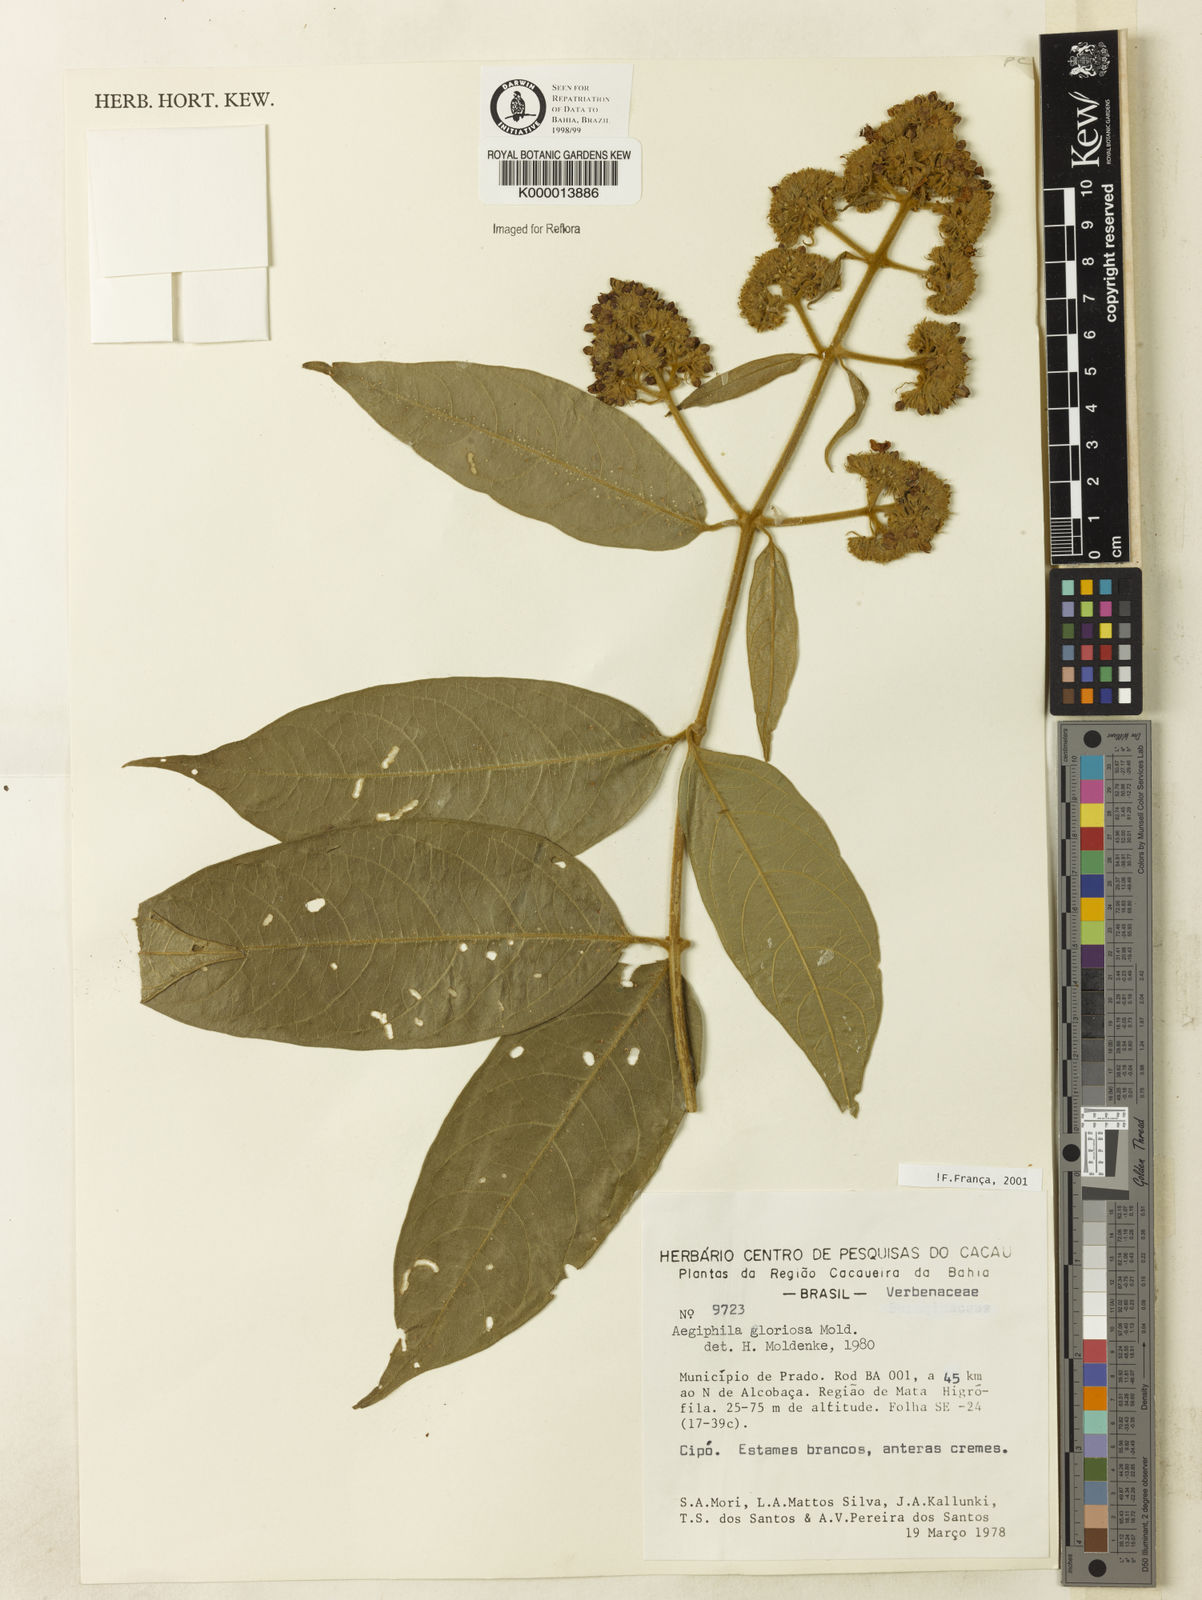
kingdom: Plantae
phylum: Tracheophyta
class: Magnoliopsida
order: Lamiales
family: Lamiaceae
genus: Aegiphila
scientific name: Aegiphila gloriosa
